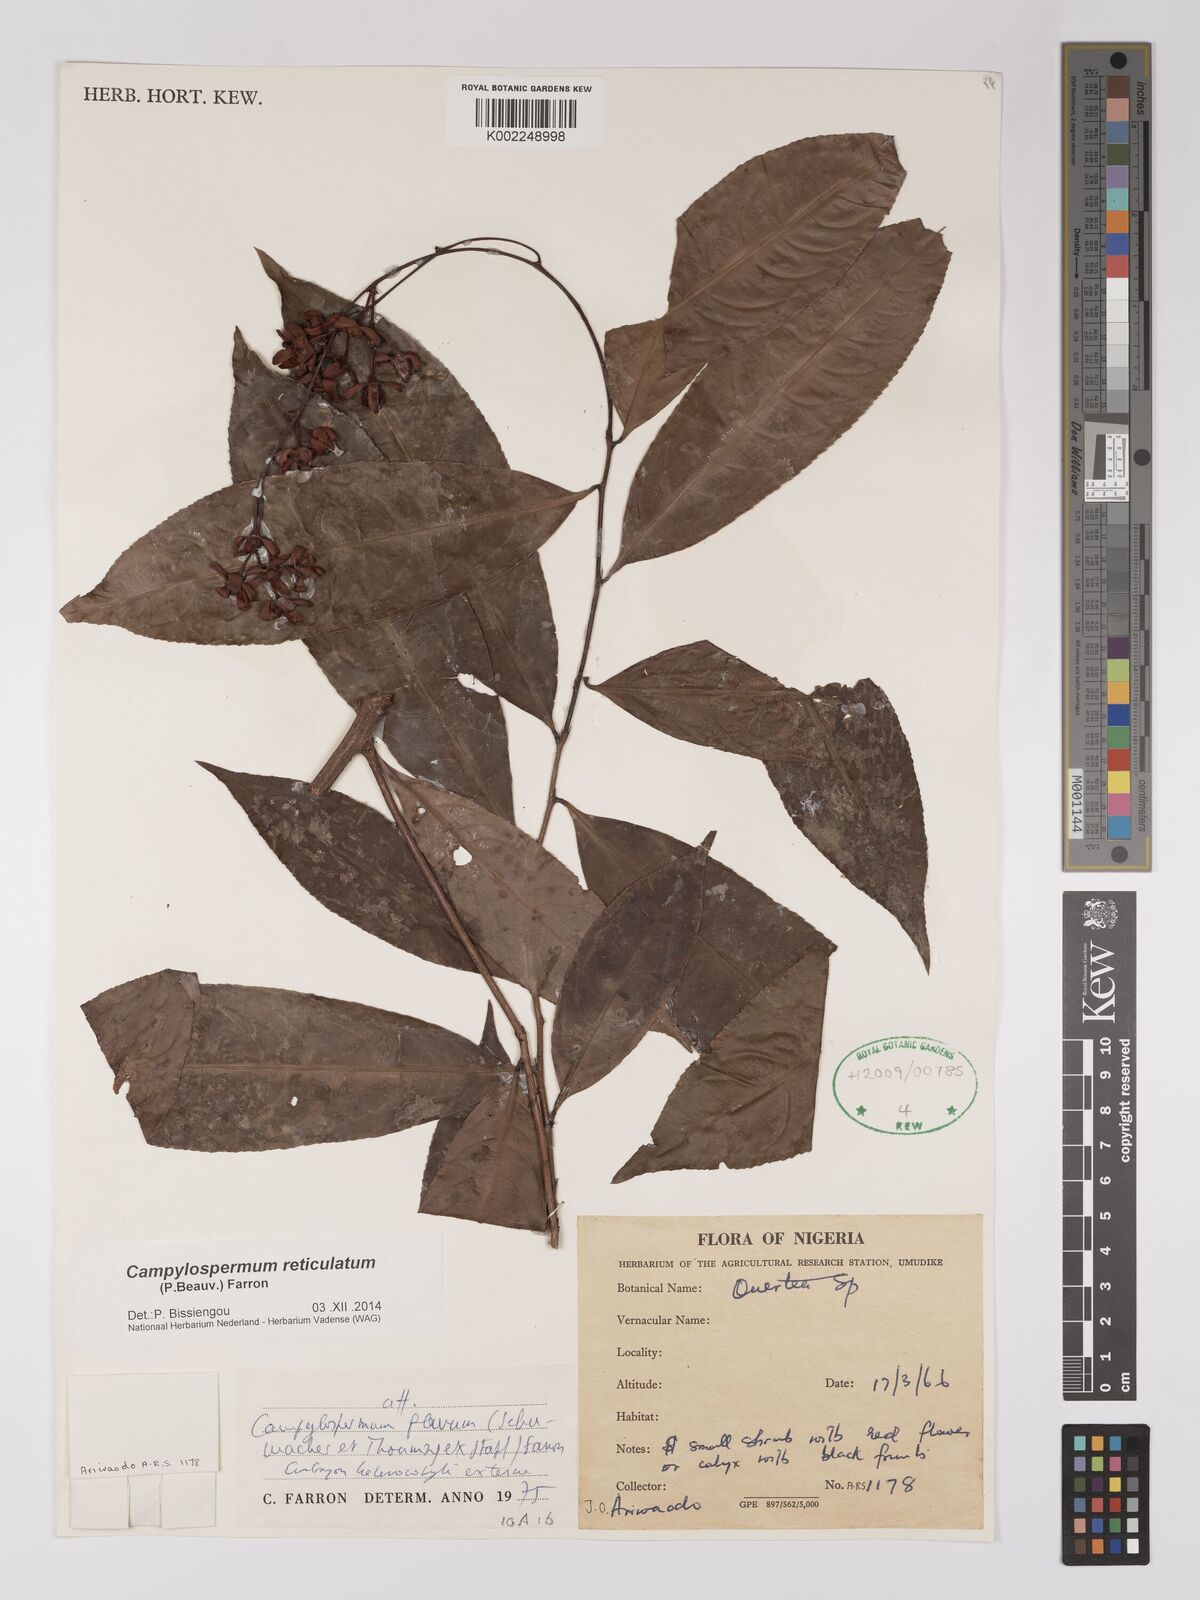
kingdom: Plantae
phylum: Tracheophyta
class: Magnoliopsida
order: Malpighiales
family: Ochnaceae
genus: Campylospermum
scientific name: Campylospermum reticulatum
